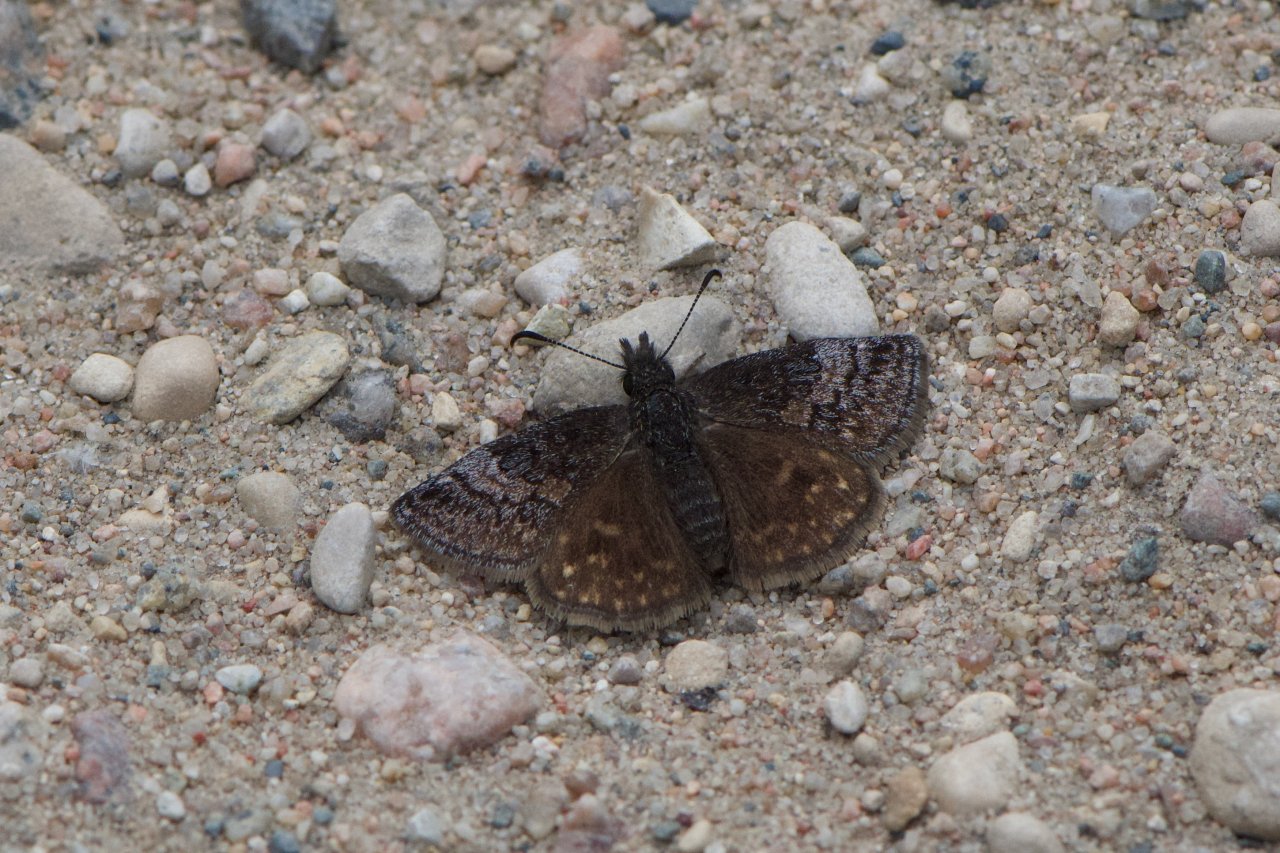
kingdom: Animalia
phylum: Arthropoda
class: Insecta
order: Lepidoptera
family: Hesperiidae
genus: Erynnis
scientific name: Erynnis icelus
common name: Dreamy Duskywing
